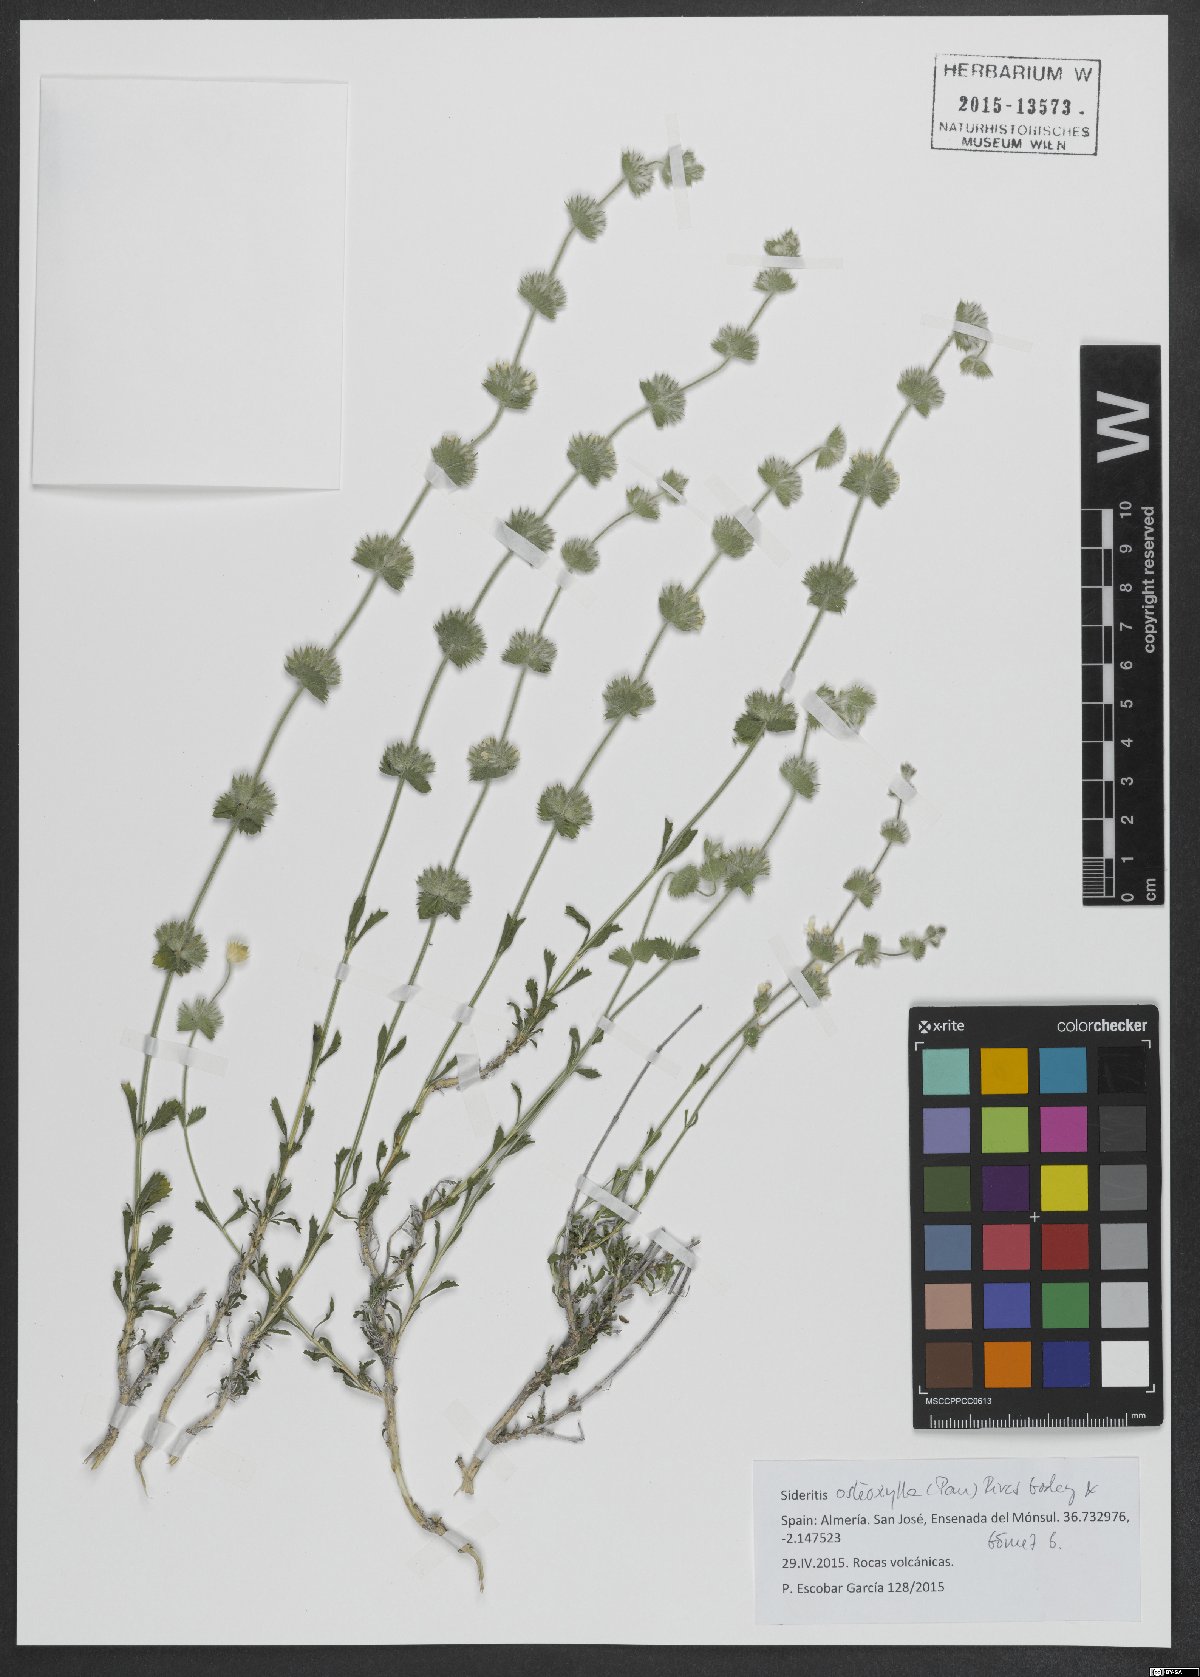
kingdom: Plantae
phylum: Tracheophyta
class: Magnoliopsida
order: Lamiales
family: Lamiaceae
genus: Sideritis
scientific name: Sideritis osteoxylla
